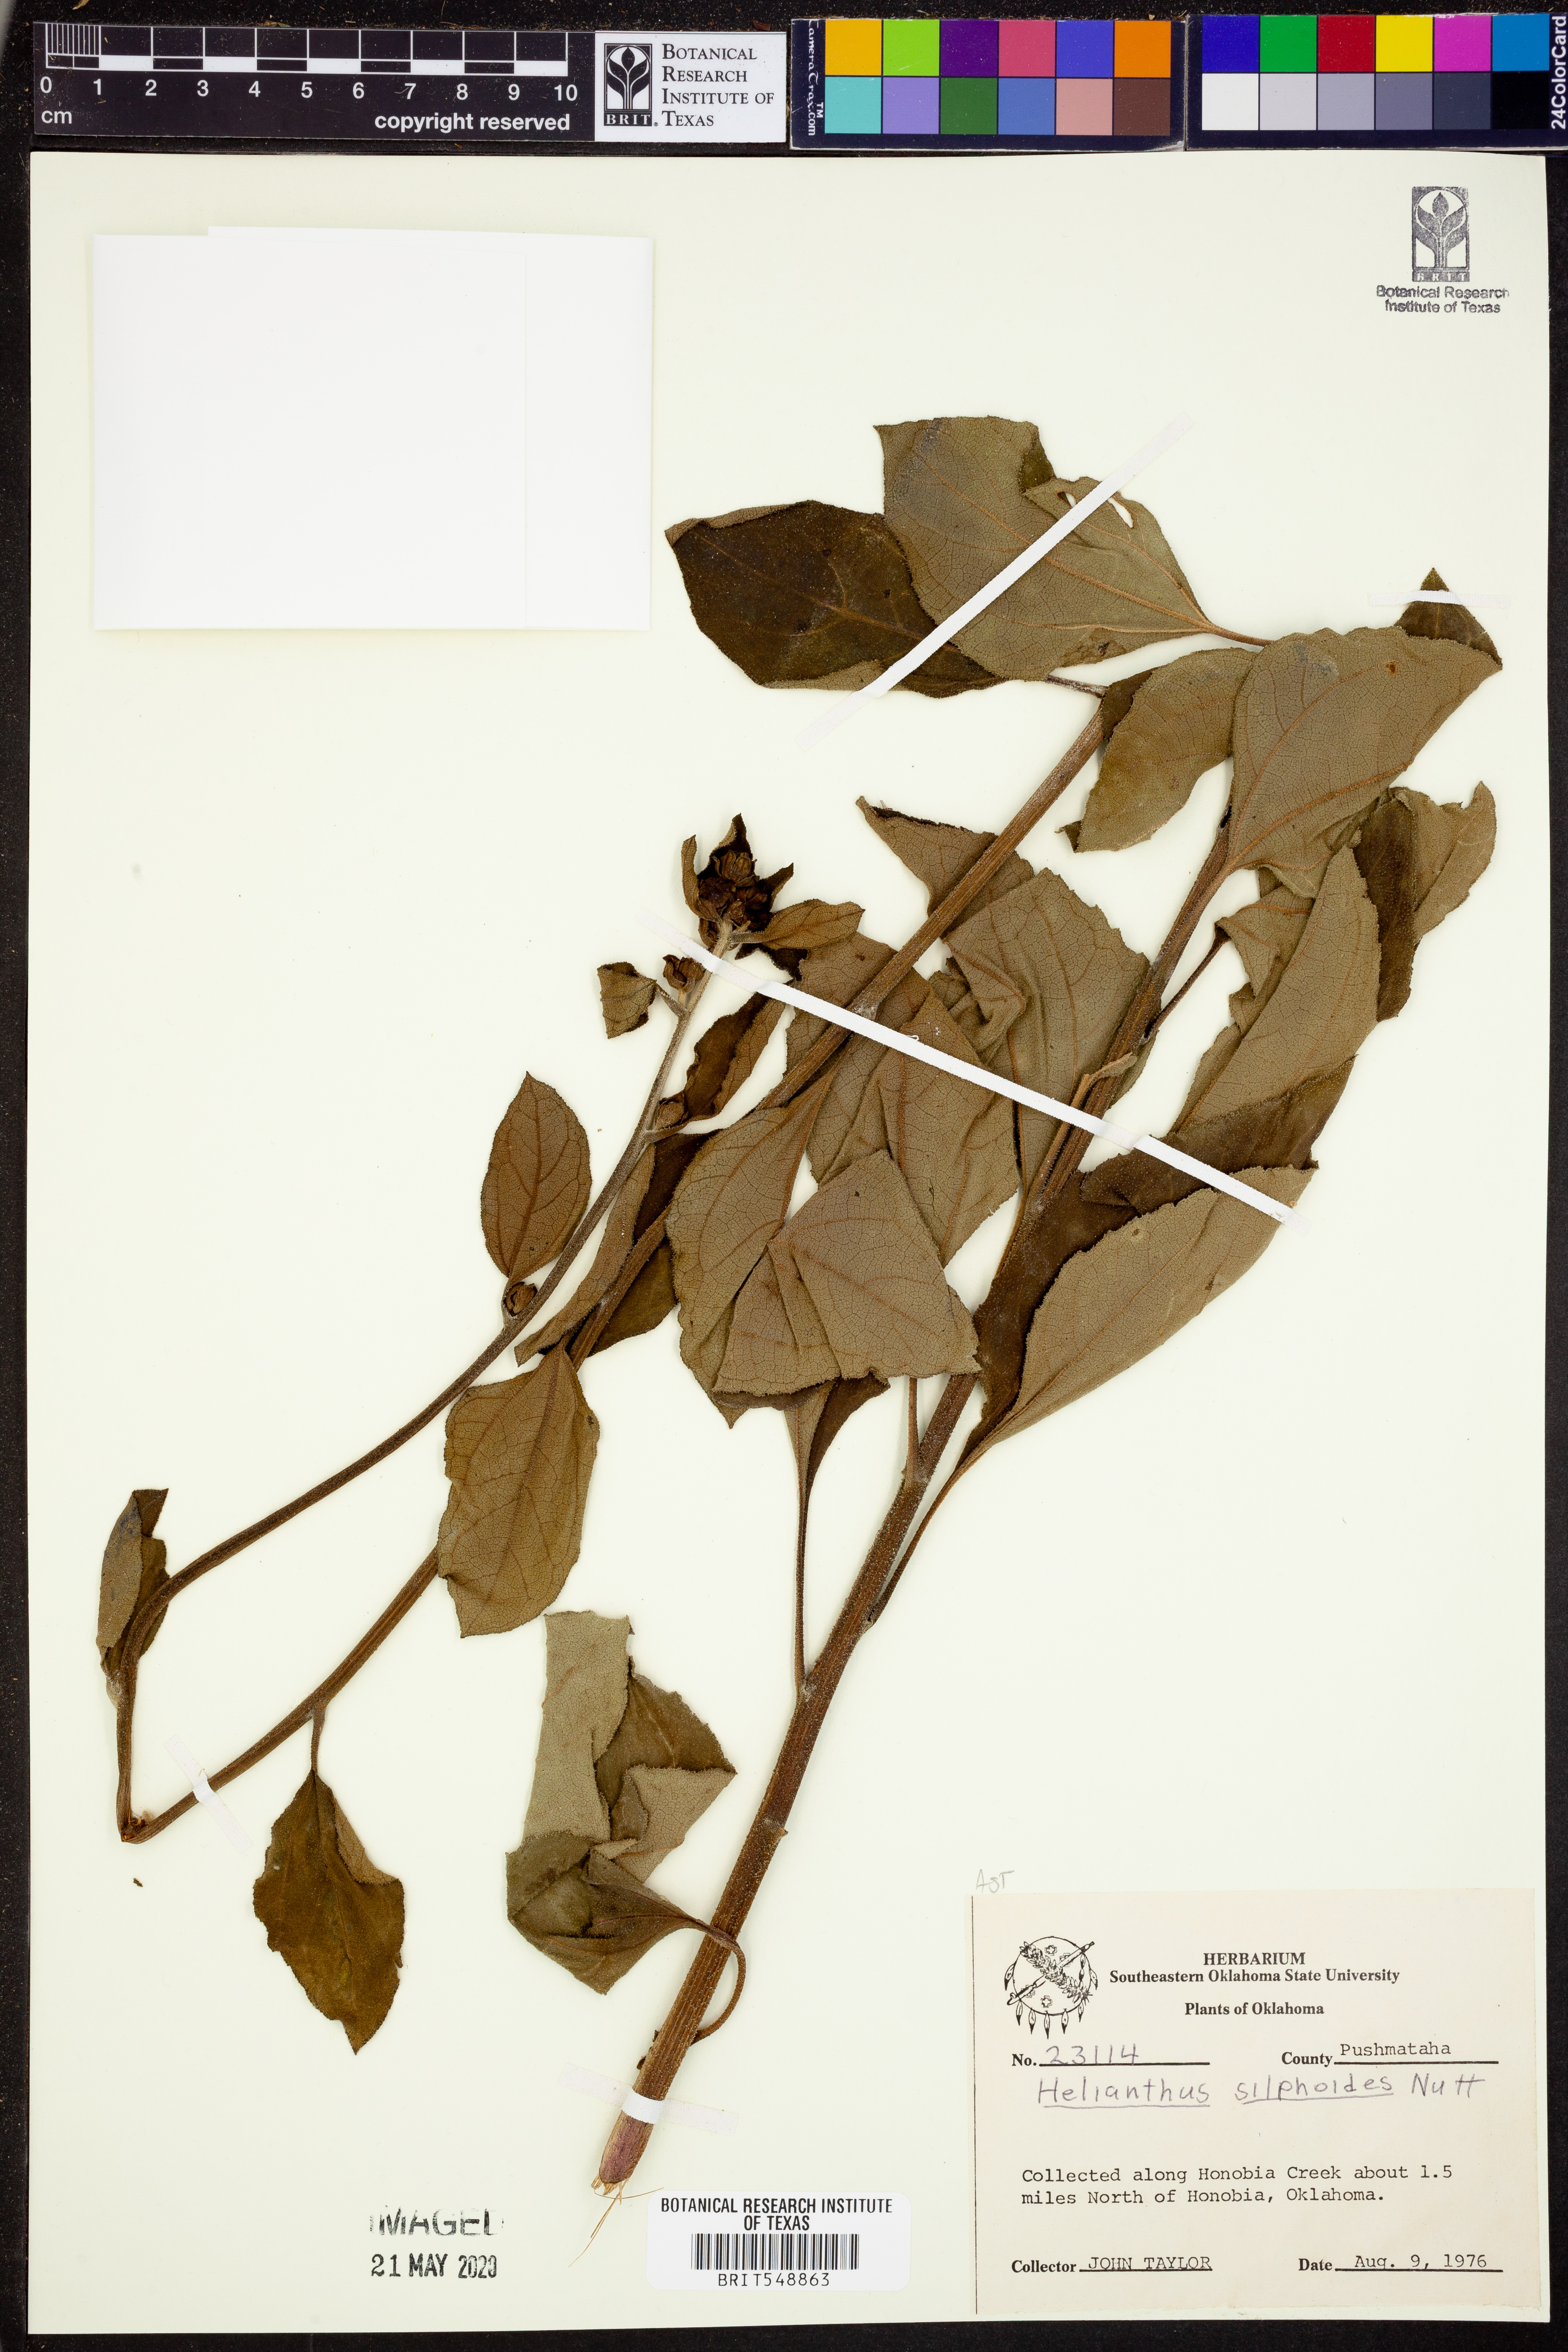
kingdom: Plantae
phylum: Tracheophyta
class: Magnoliopsida
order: Asterales
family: Asteraceae
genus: Helianthus
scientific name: Helianthus silphioides
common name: Odorous sunflower
